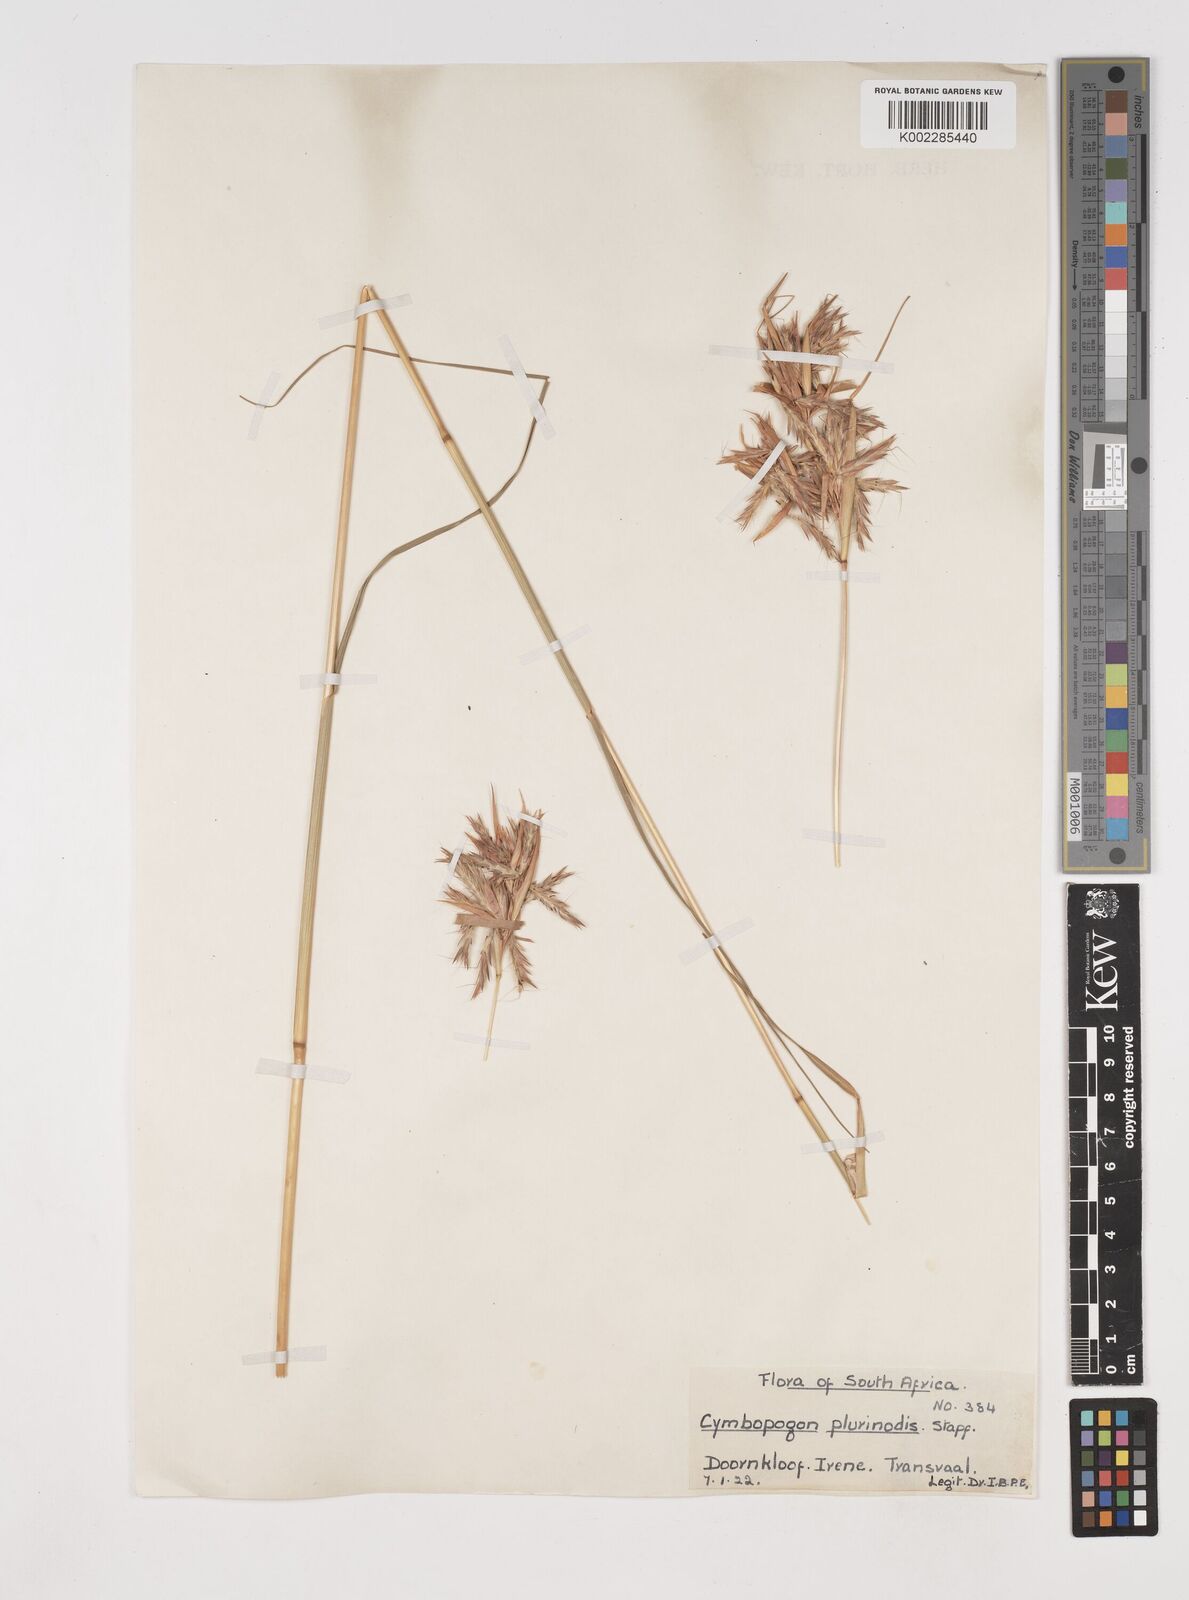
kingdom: Plantae
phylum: Tracheophyta
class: Liliopsida
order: Poales
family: Poaceae
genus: Cymbopogon
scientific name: Cymbopogon
